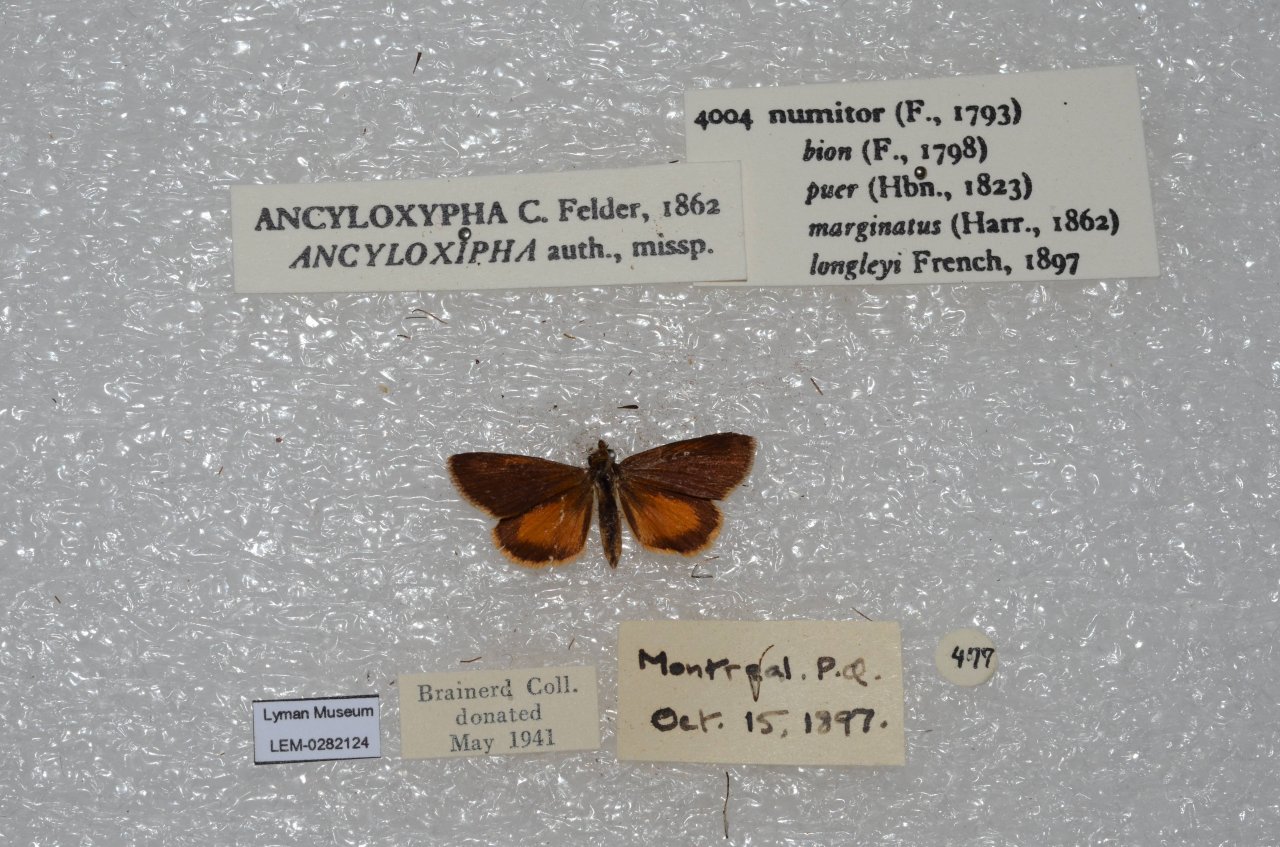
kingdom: Animalia
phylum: Arthropoda
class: Insecta
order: Lepidoptera
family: Hesperiidae
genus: Ancyloxypha
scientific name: Ancyloxypha numitor
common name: Least Skipper
